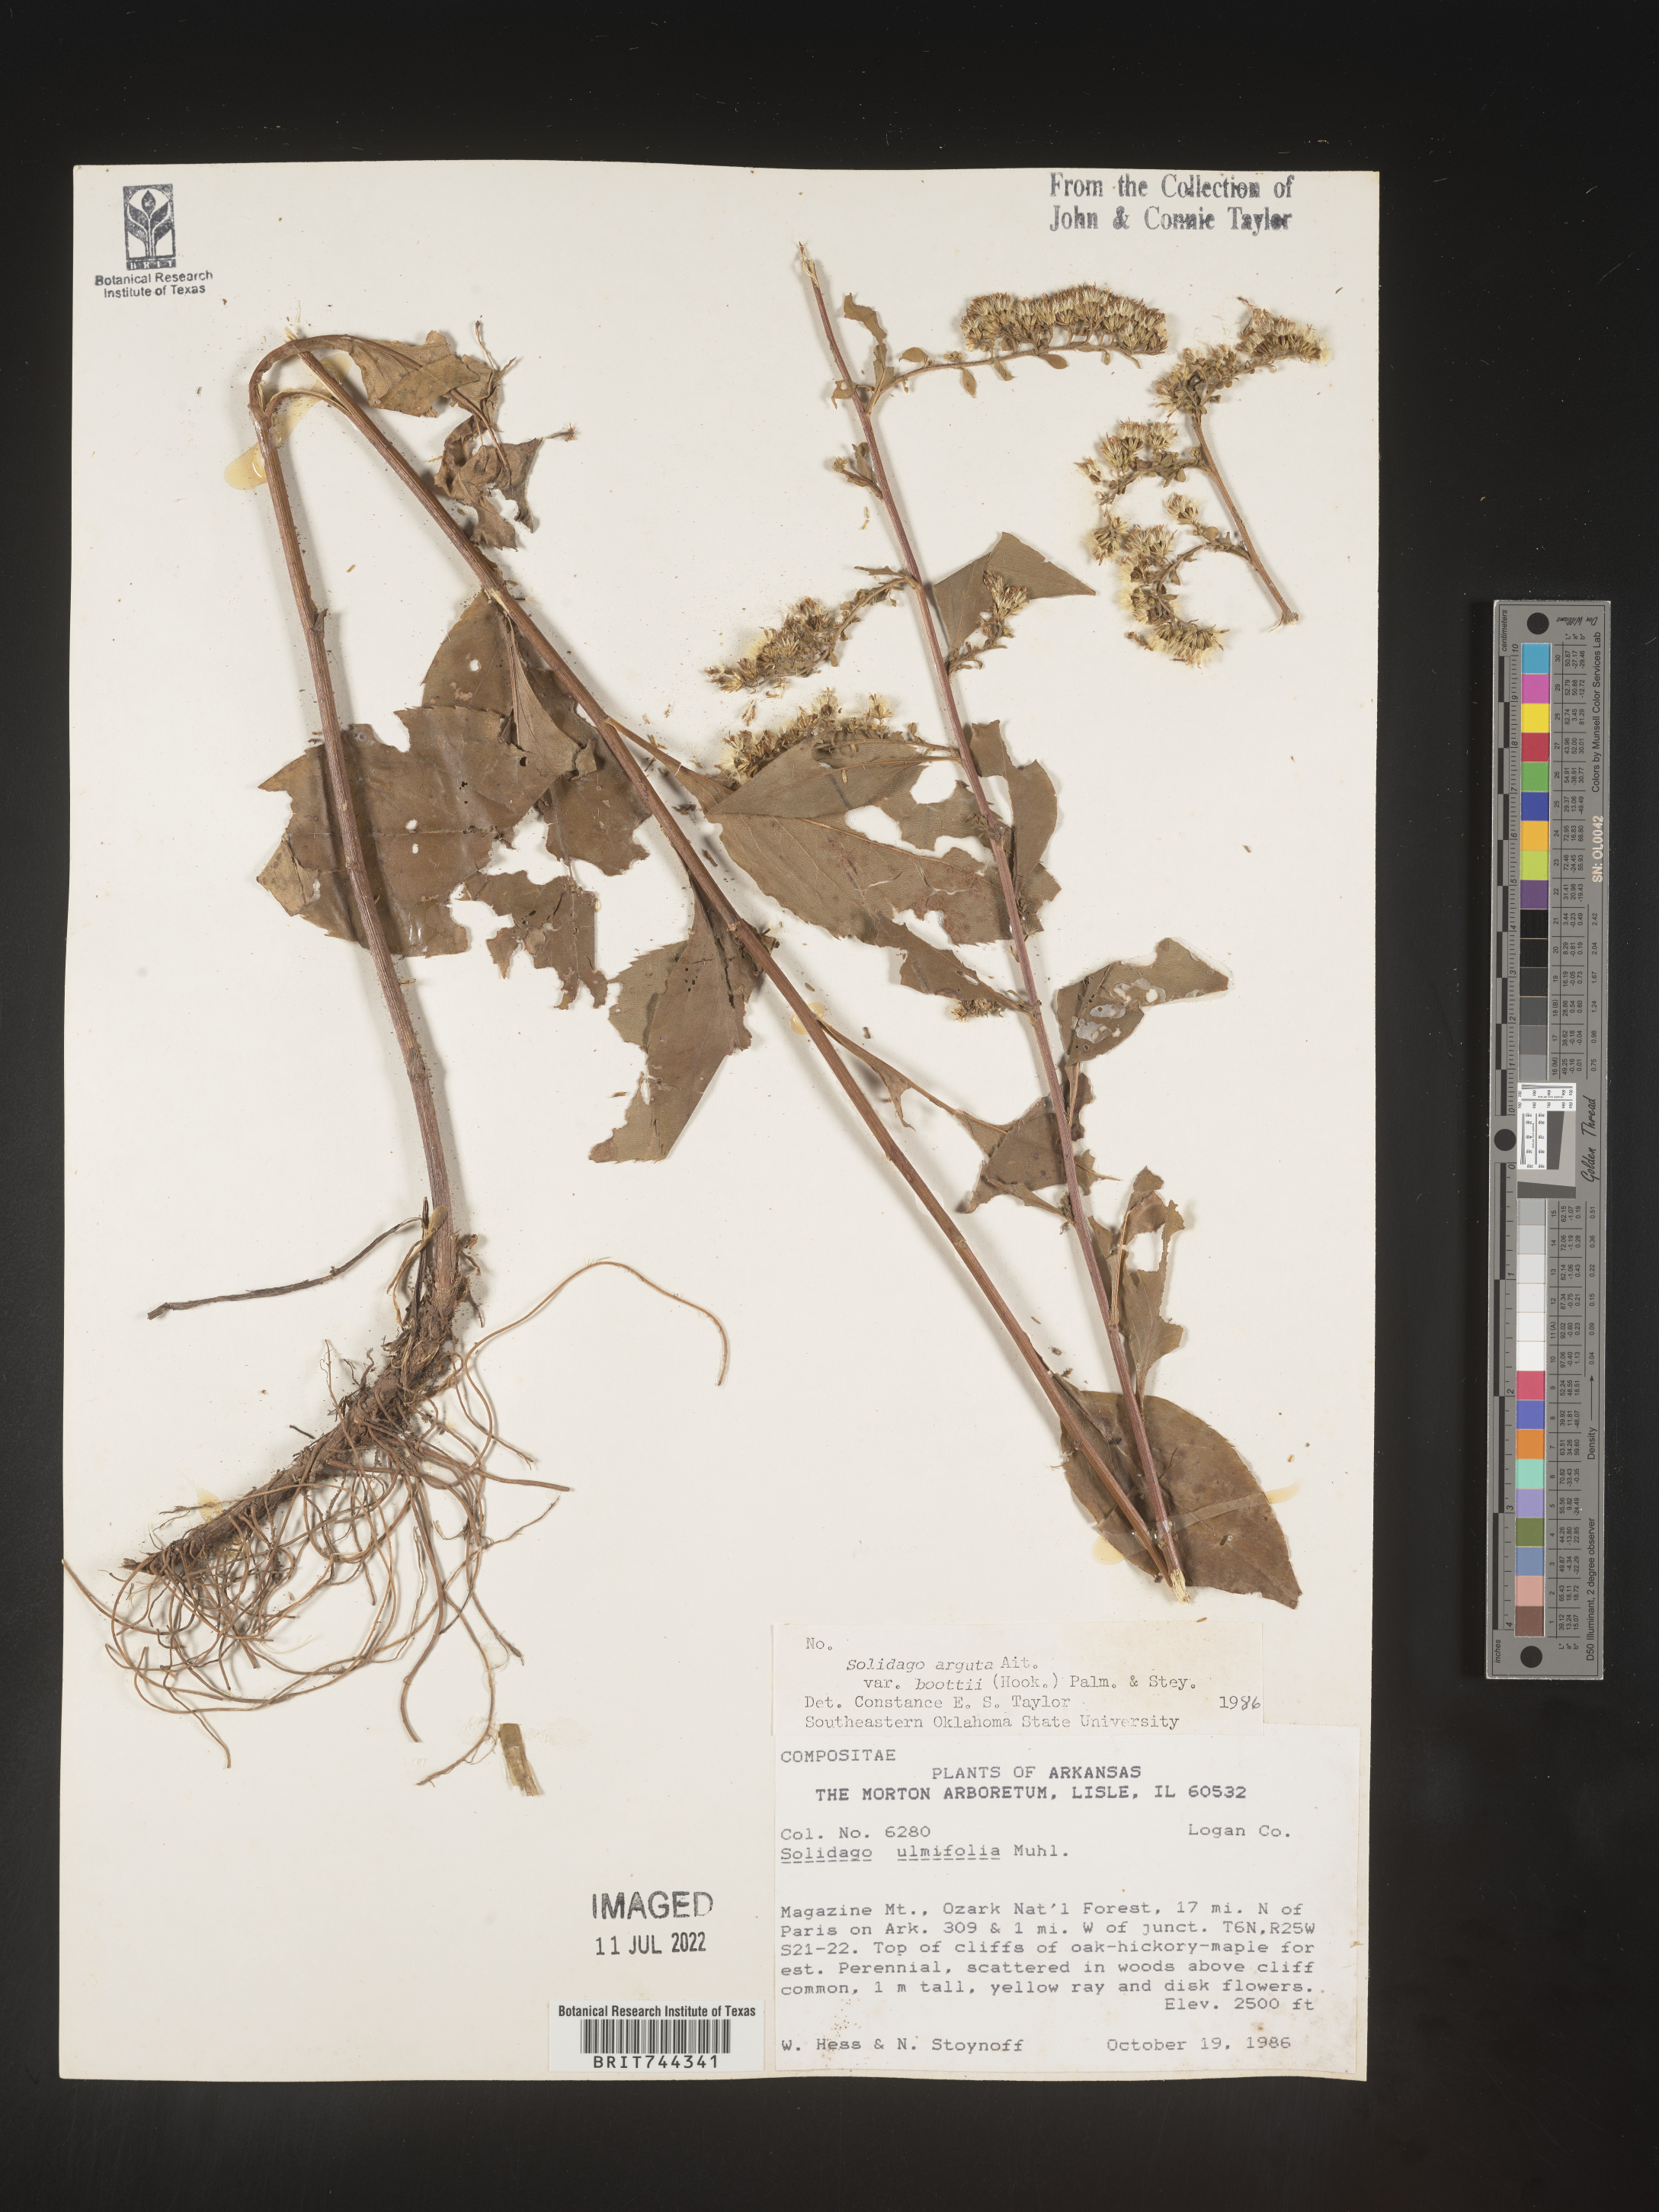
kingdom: Plantae
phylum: Tracheophyta
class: Magnoliopsida
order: Asterales
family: Asteraceae
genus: Solidago
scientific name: Solidago arguta
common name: Atlantic goldenrod
